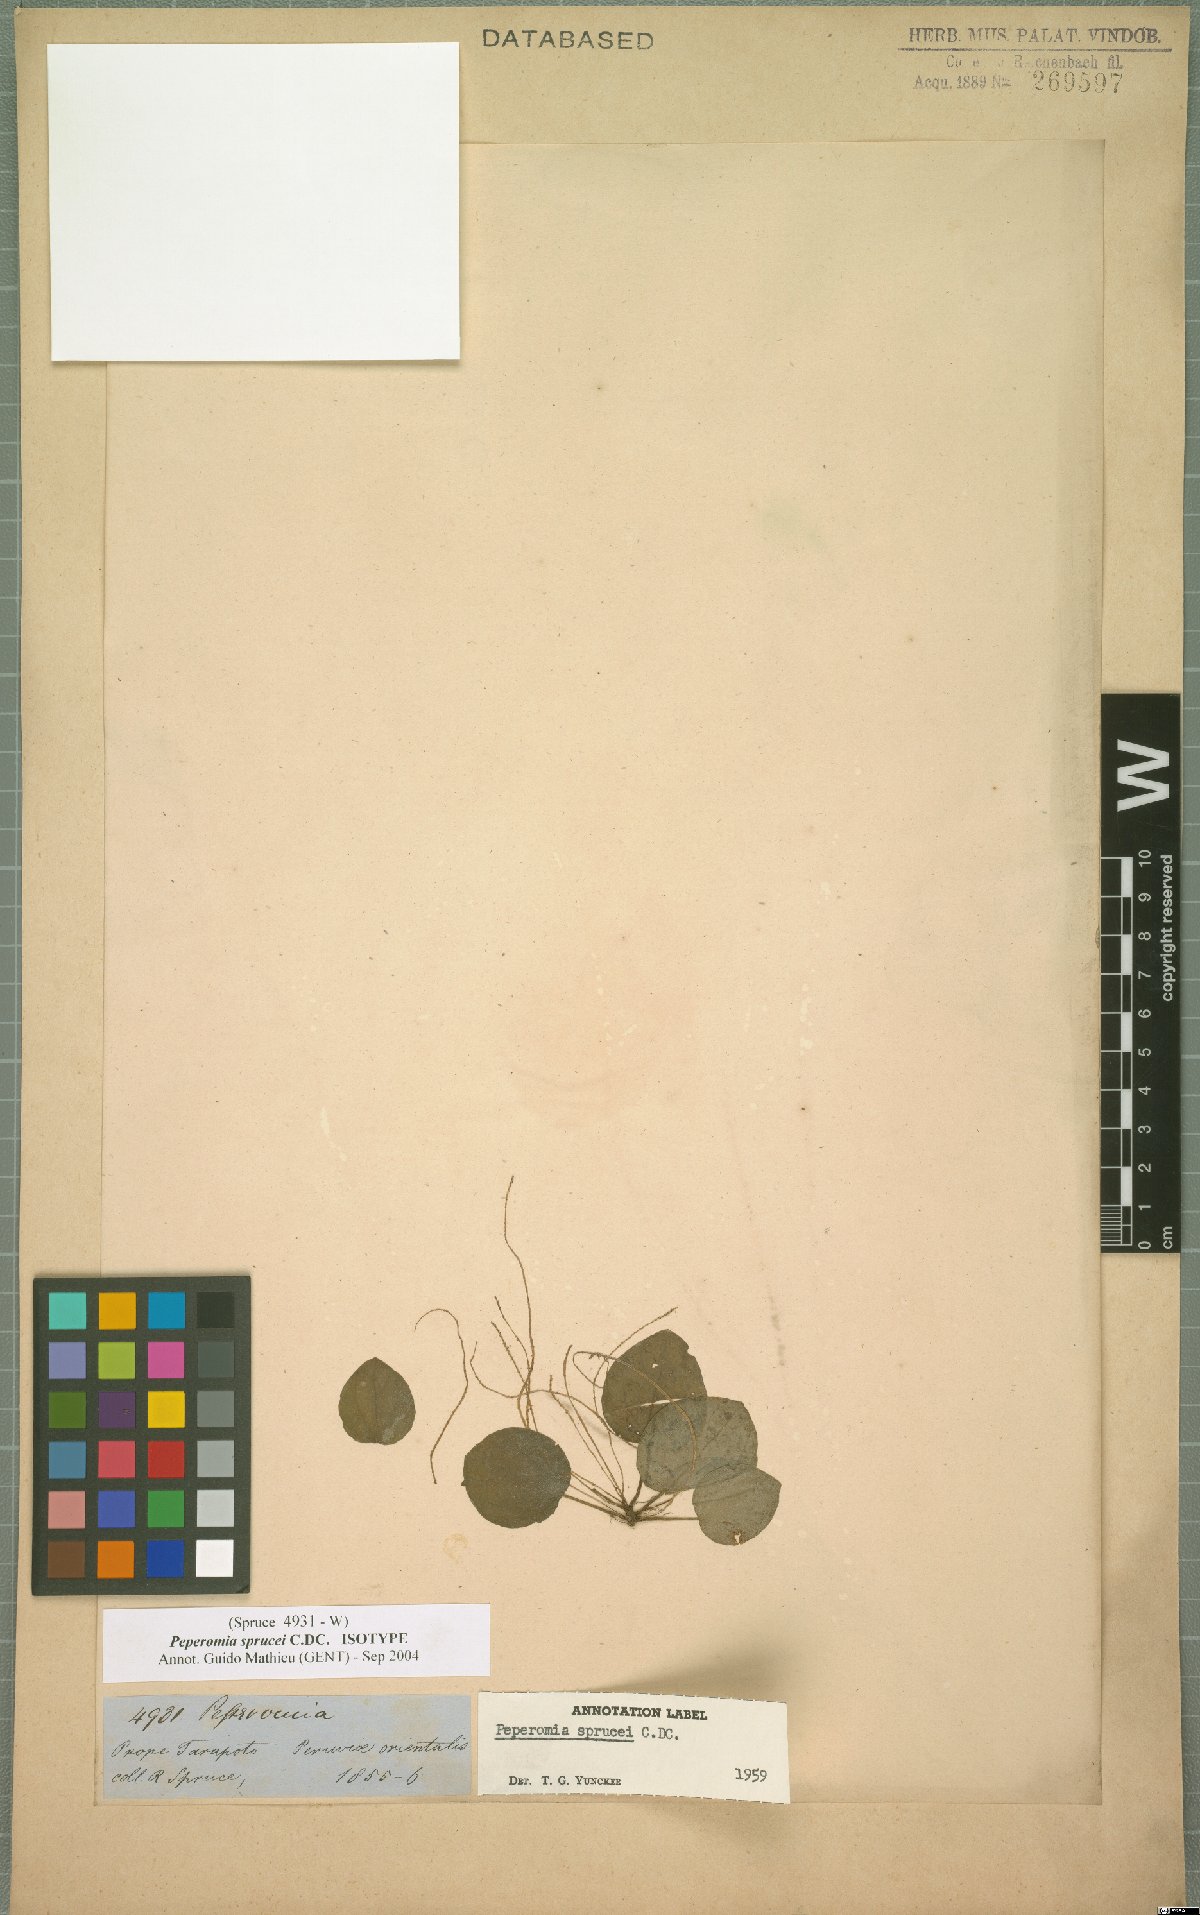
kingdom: Plantae
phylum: Tracheophyta
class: Magnoliopsida
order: Piperales
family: Piperaceae
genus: Peperomia
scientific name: Peperomia sprucei
